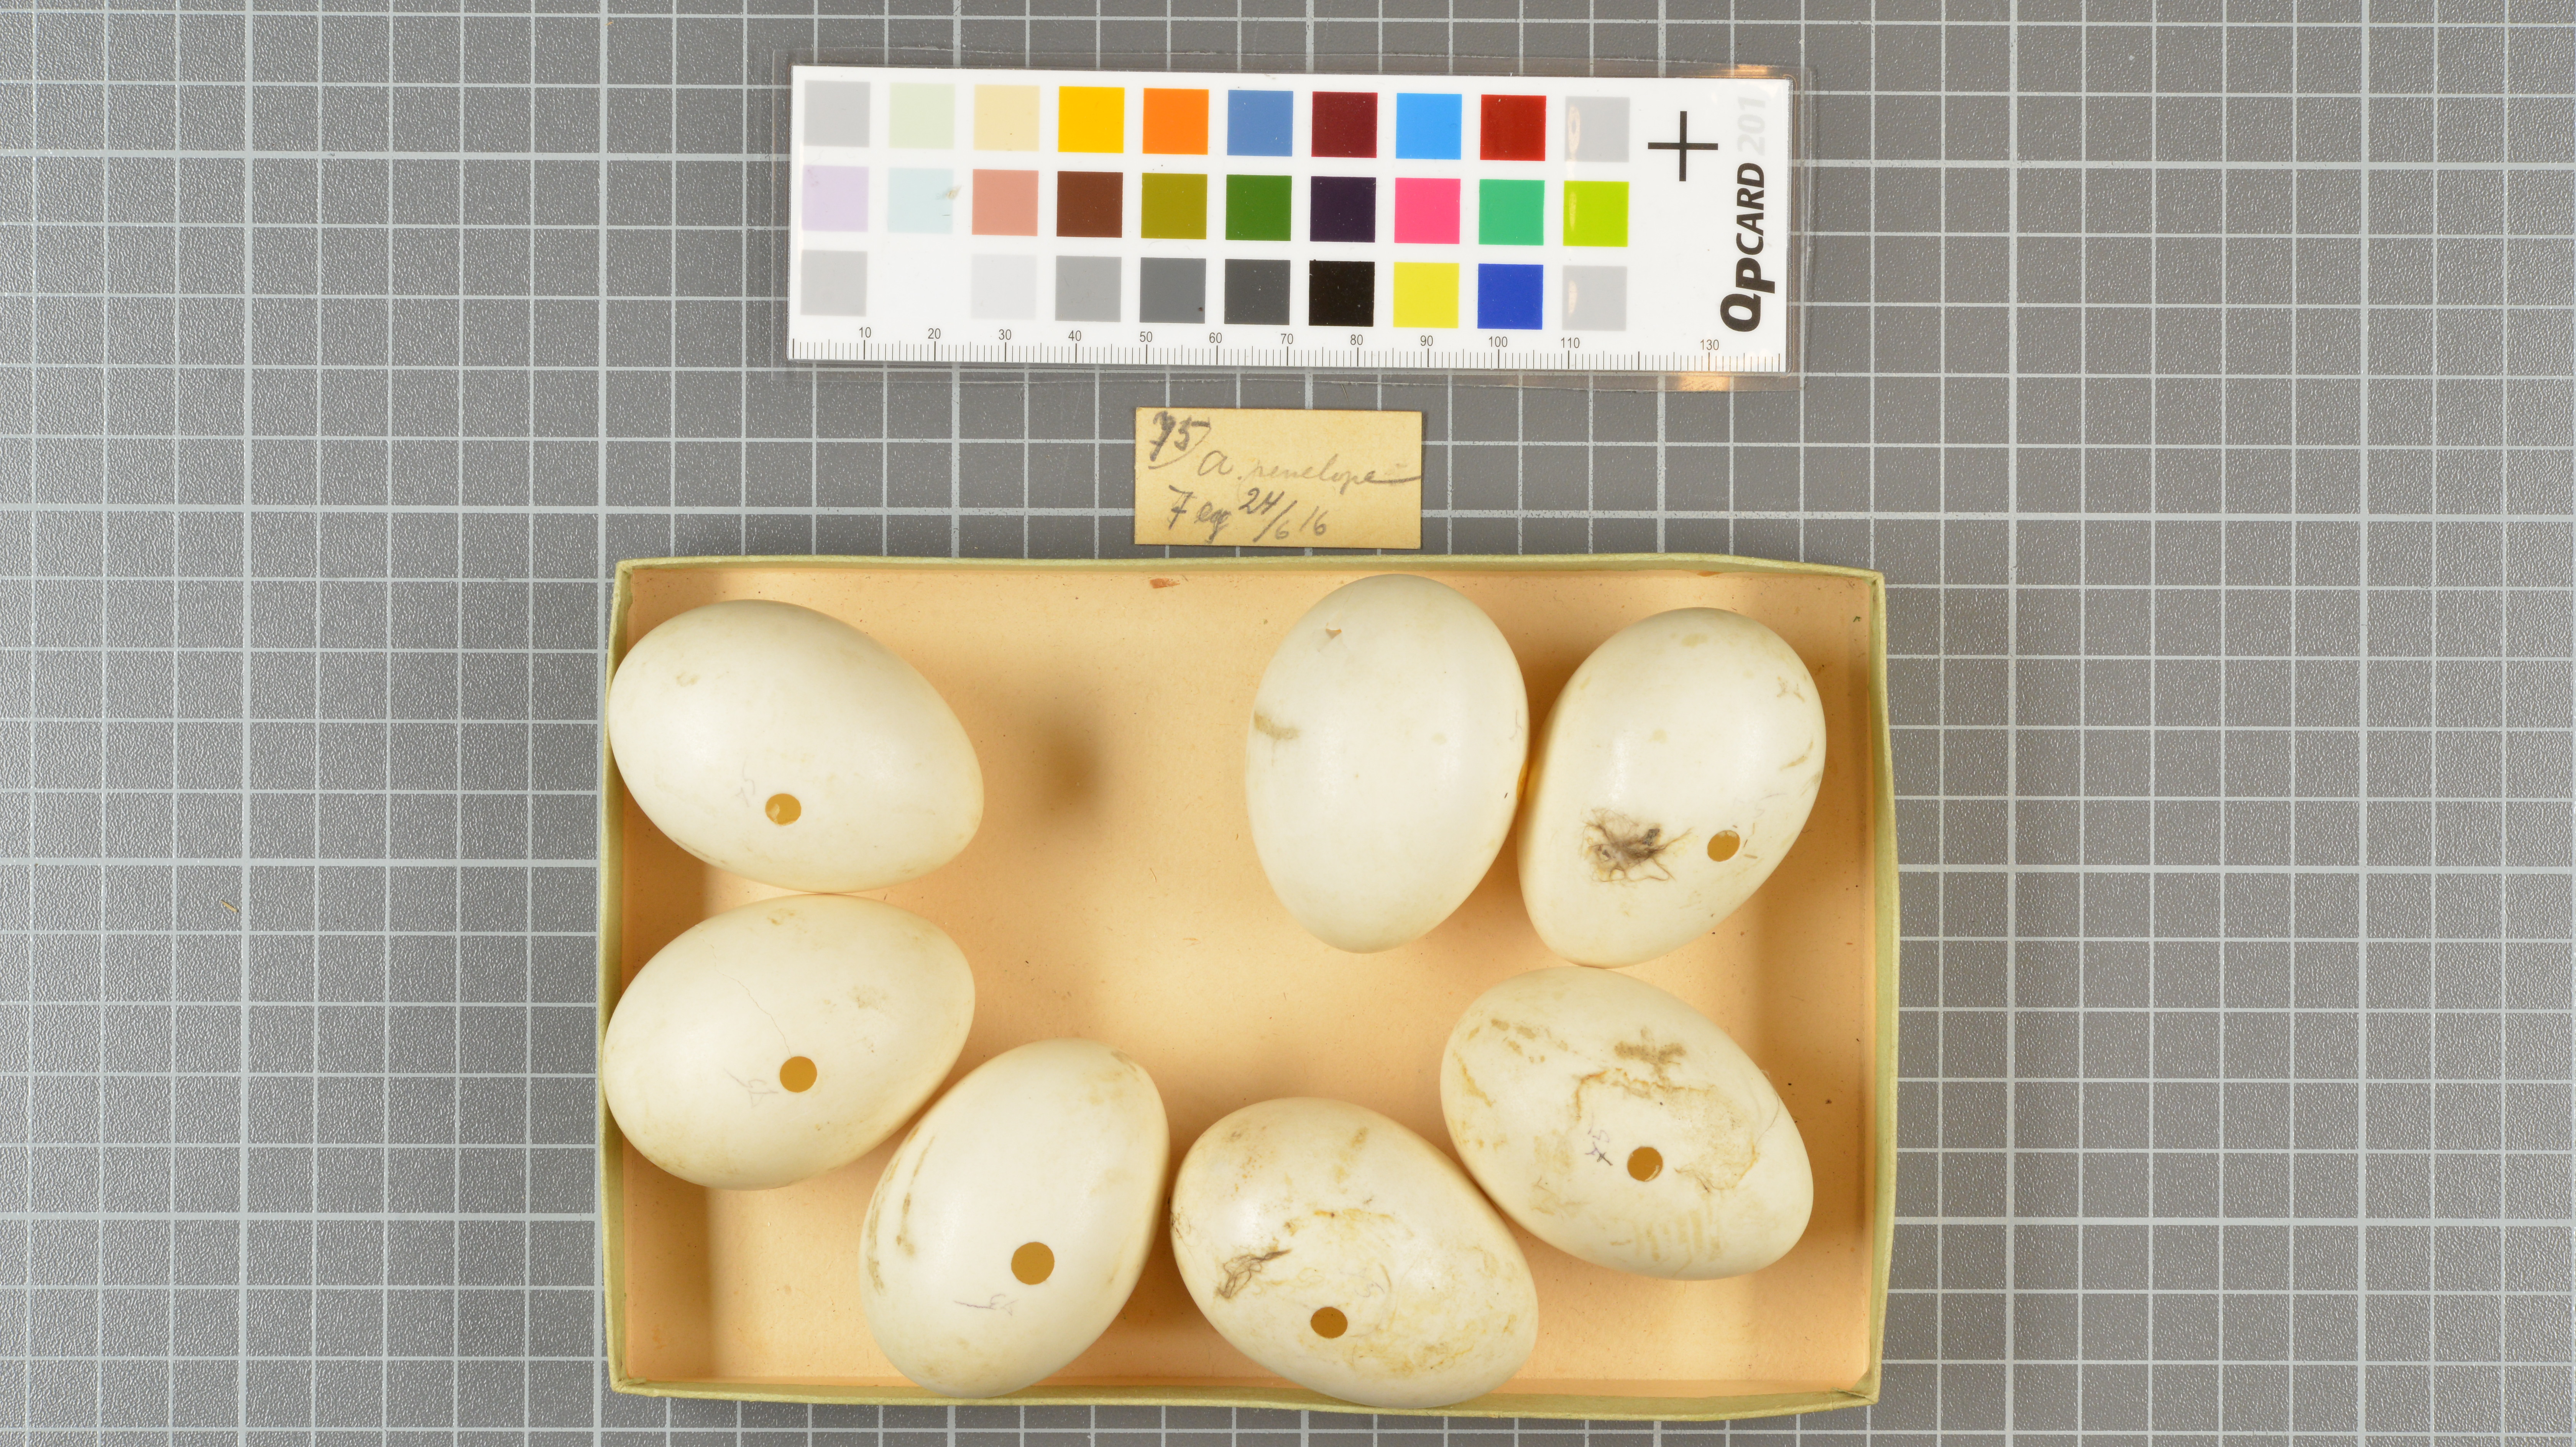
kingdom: Animalia
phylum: Chordata
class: Aves
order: Anseriformes
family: Anatidae
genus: Mareca
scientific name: Mareca penelope
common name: Eurasian wigeon
